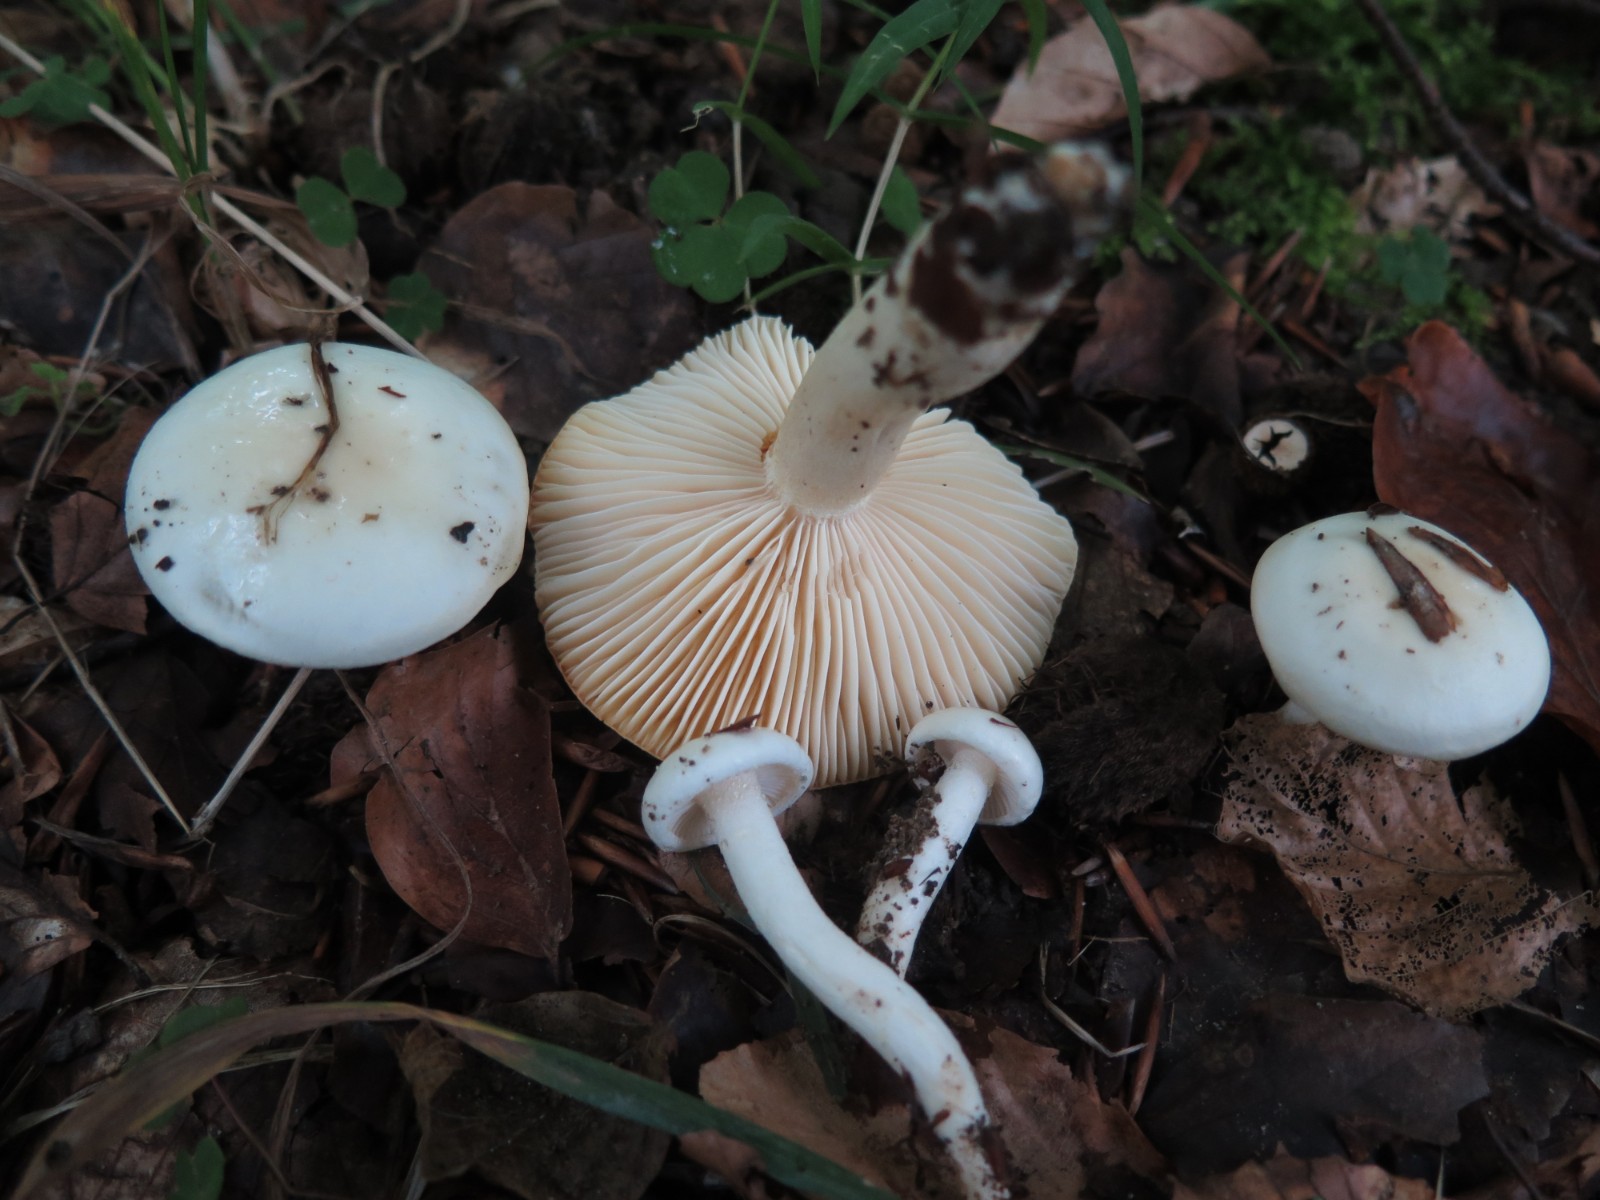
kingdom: Fungi
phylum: Basidiomycota
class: Agaricomycetes
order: Agaricales
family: Hygrophoraceae
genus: Hygrophorus
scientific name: Hygrophorus eburneus
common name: elfenbens-sneglehat
